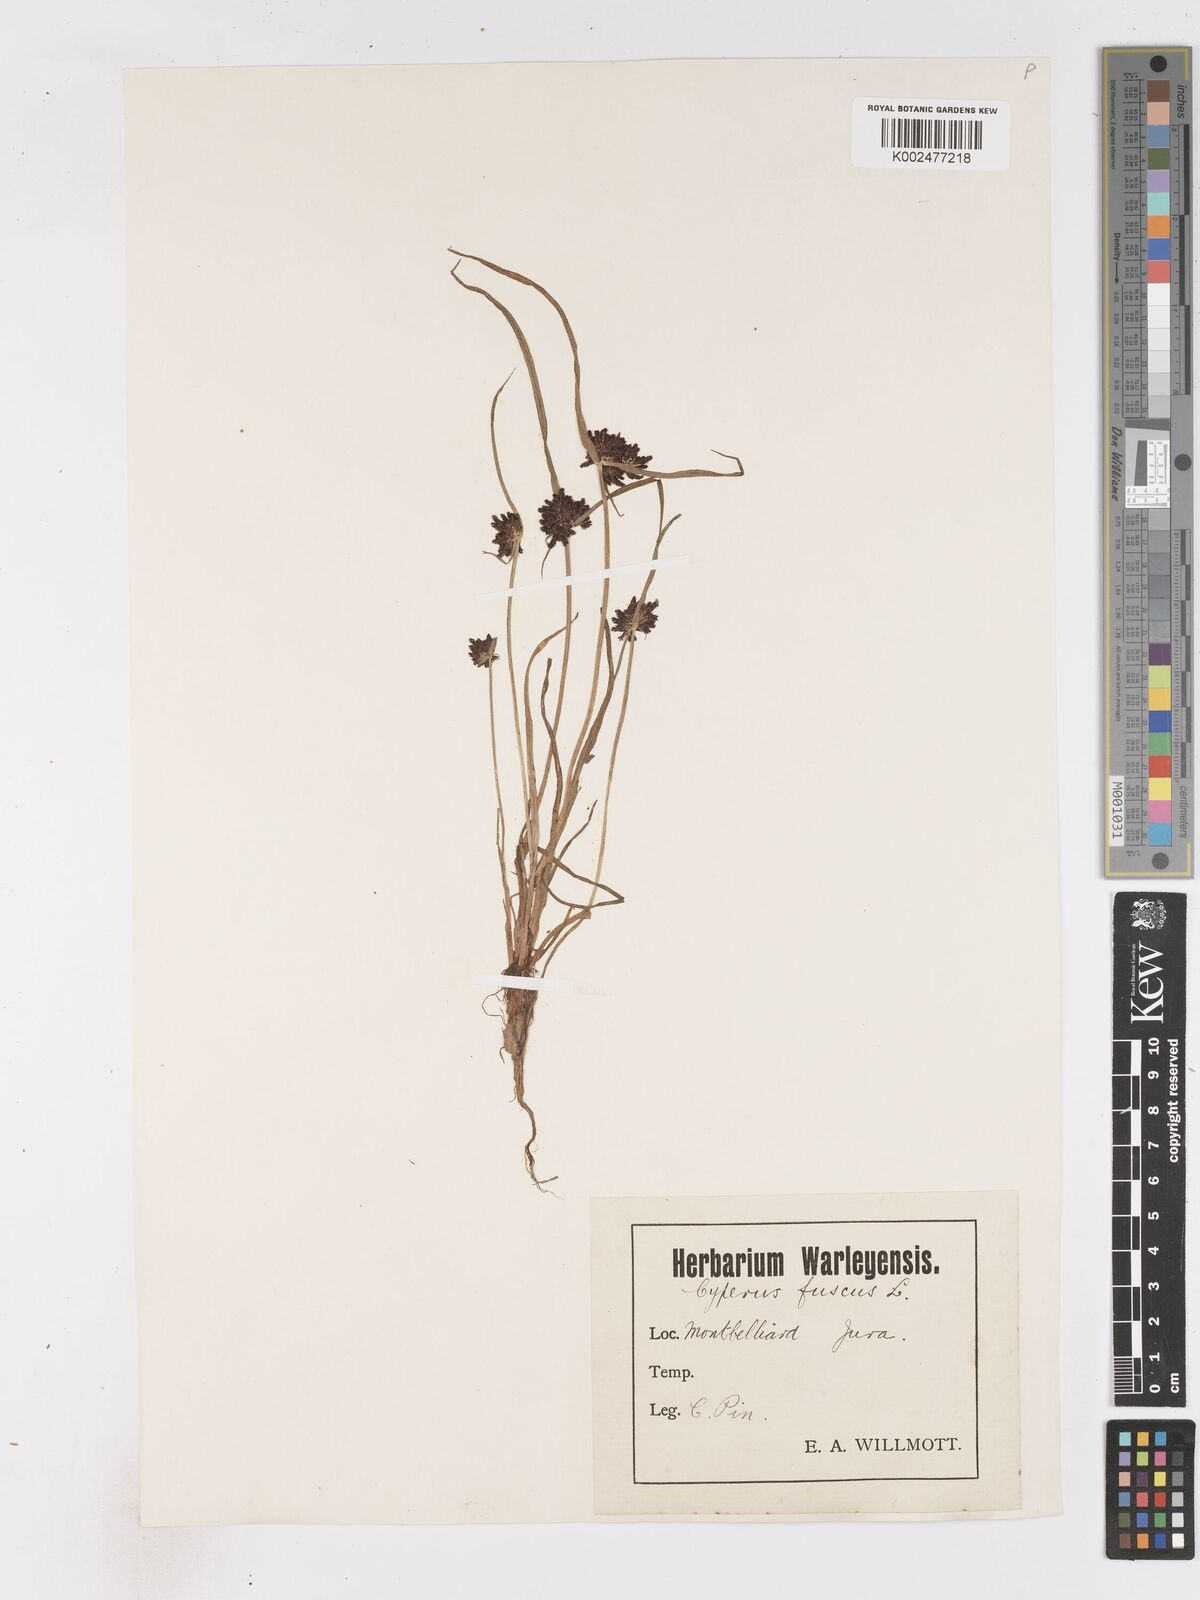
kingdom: Plantae
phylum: Tracheophyta
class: Liliopsida
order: Poales
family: Cyperaceae
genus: Cyperus
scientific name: Cyperus fuscus
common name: Brown galingale
